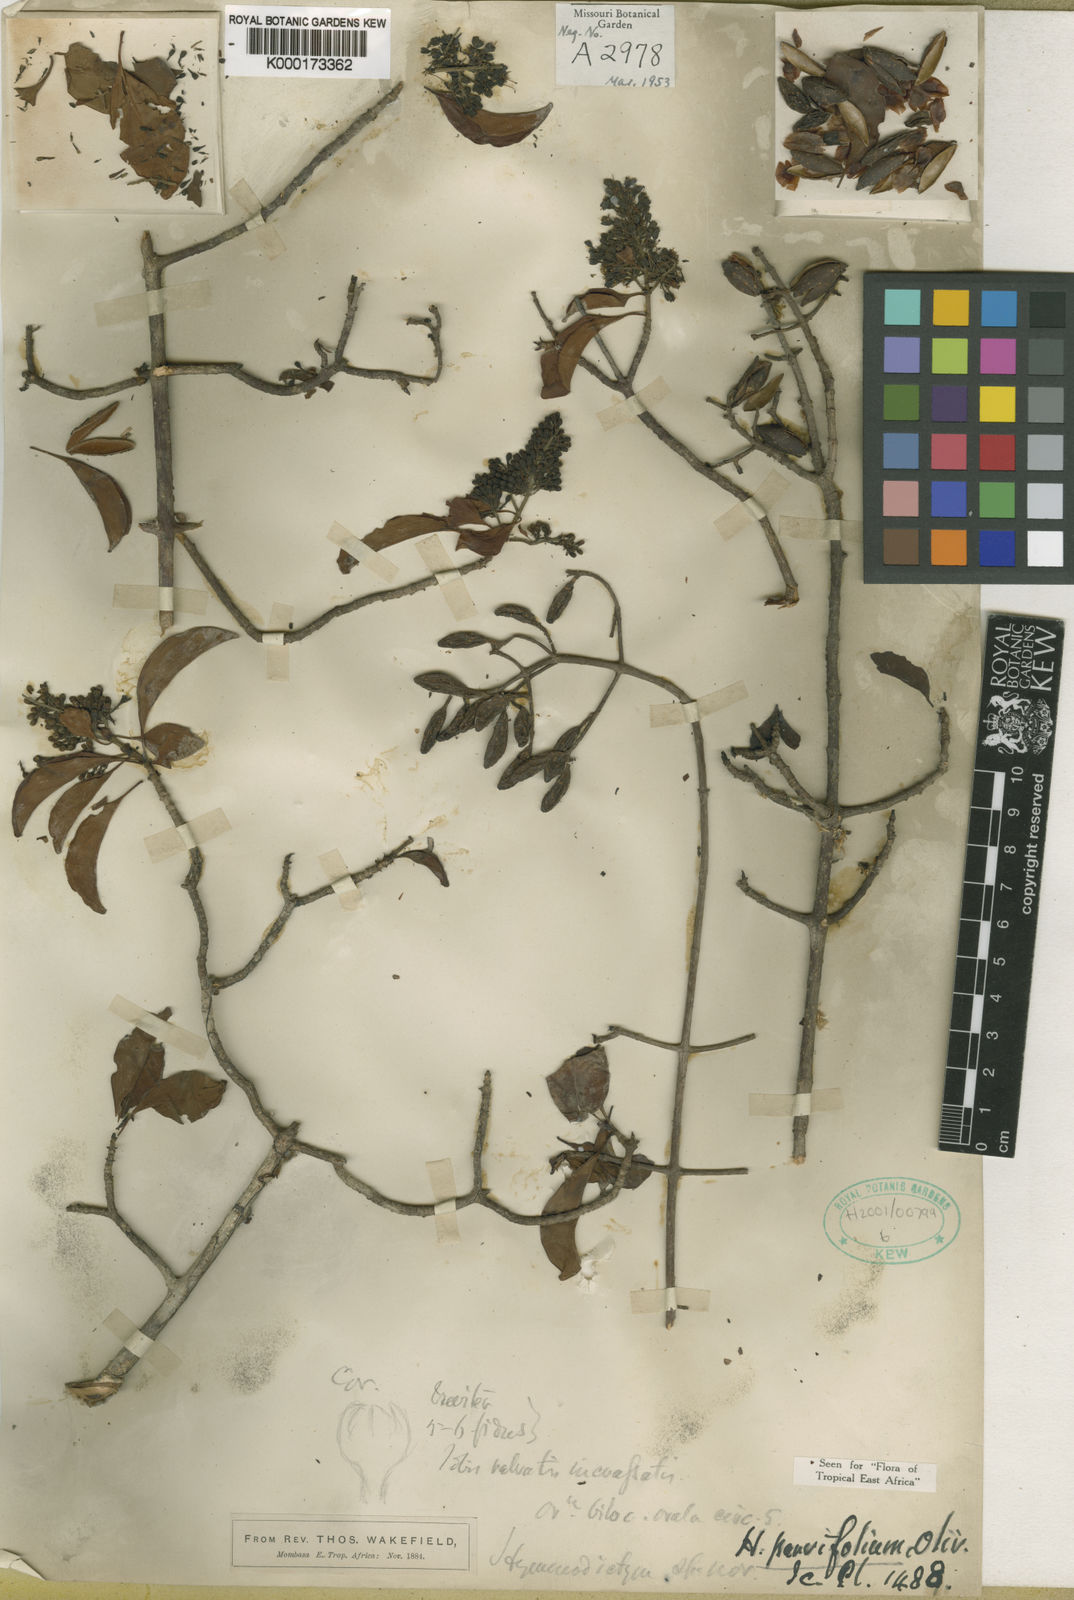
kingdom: Plantae
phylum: Tracheophyta
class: Magnoliopsida
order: Gentianales
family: Rubiaceae
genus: Hymenodictyon
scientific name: Hymenodictyon parvifolium
